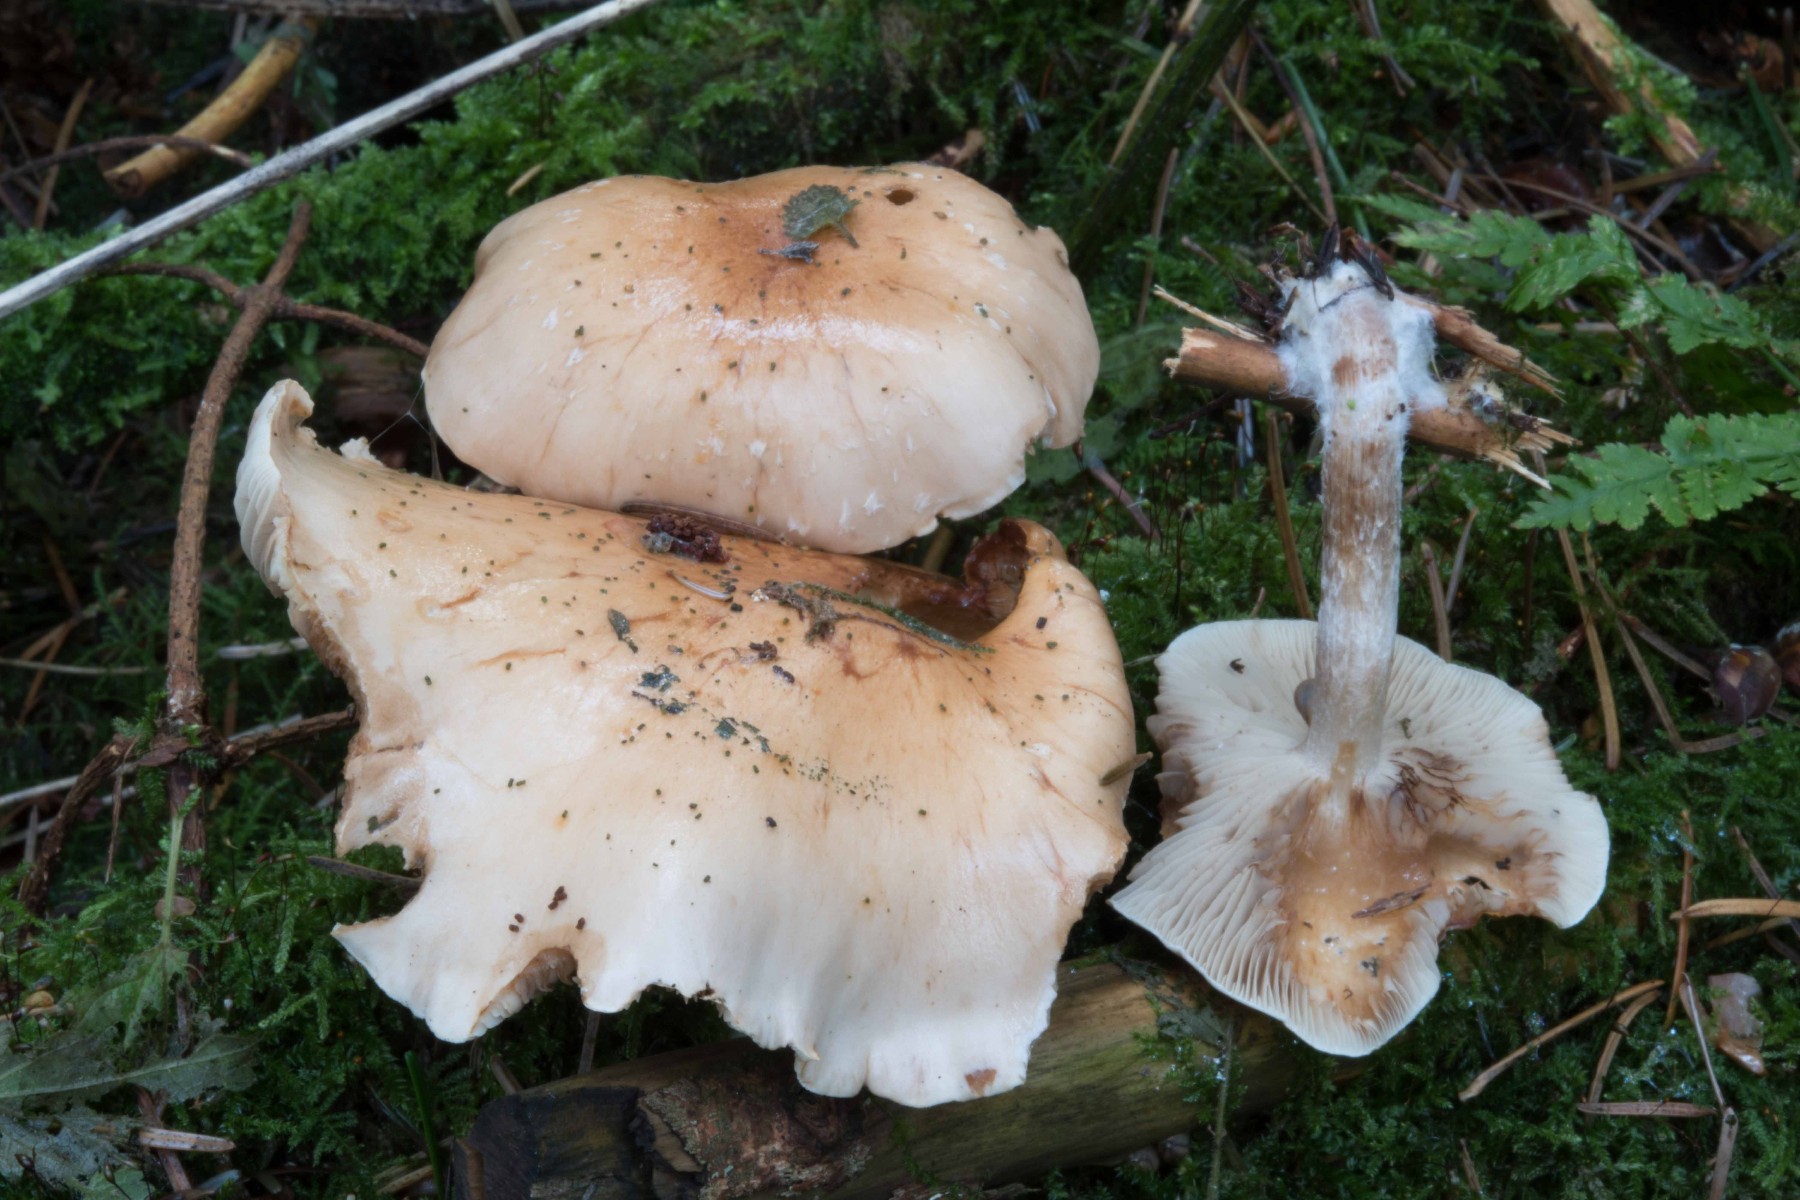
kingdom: Fungi
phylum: Basidiomycota
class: Agaricomycetes
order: Agaricales
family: Strophariaceae
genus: Pholiota
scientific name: Pholiota lenta
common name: løv-skælhat
